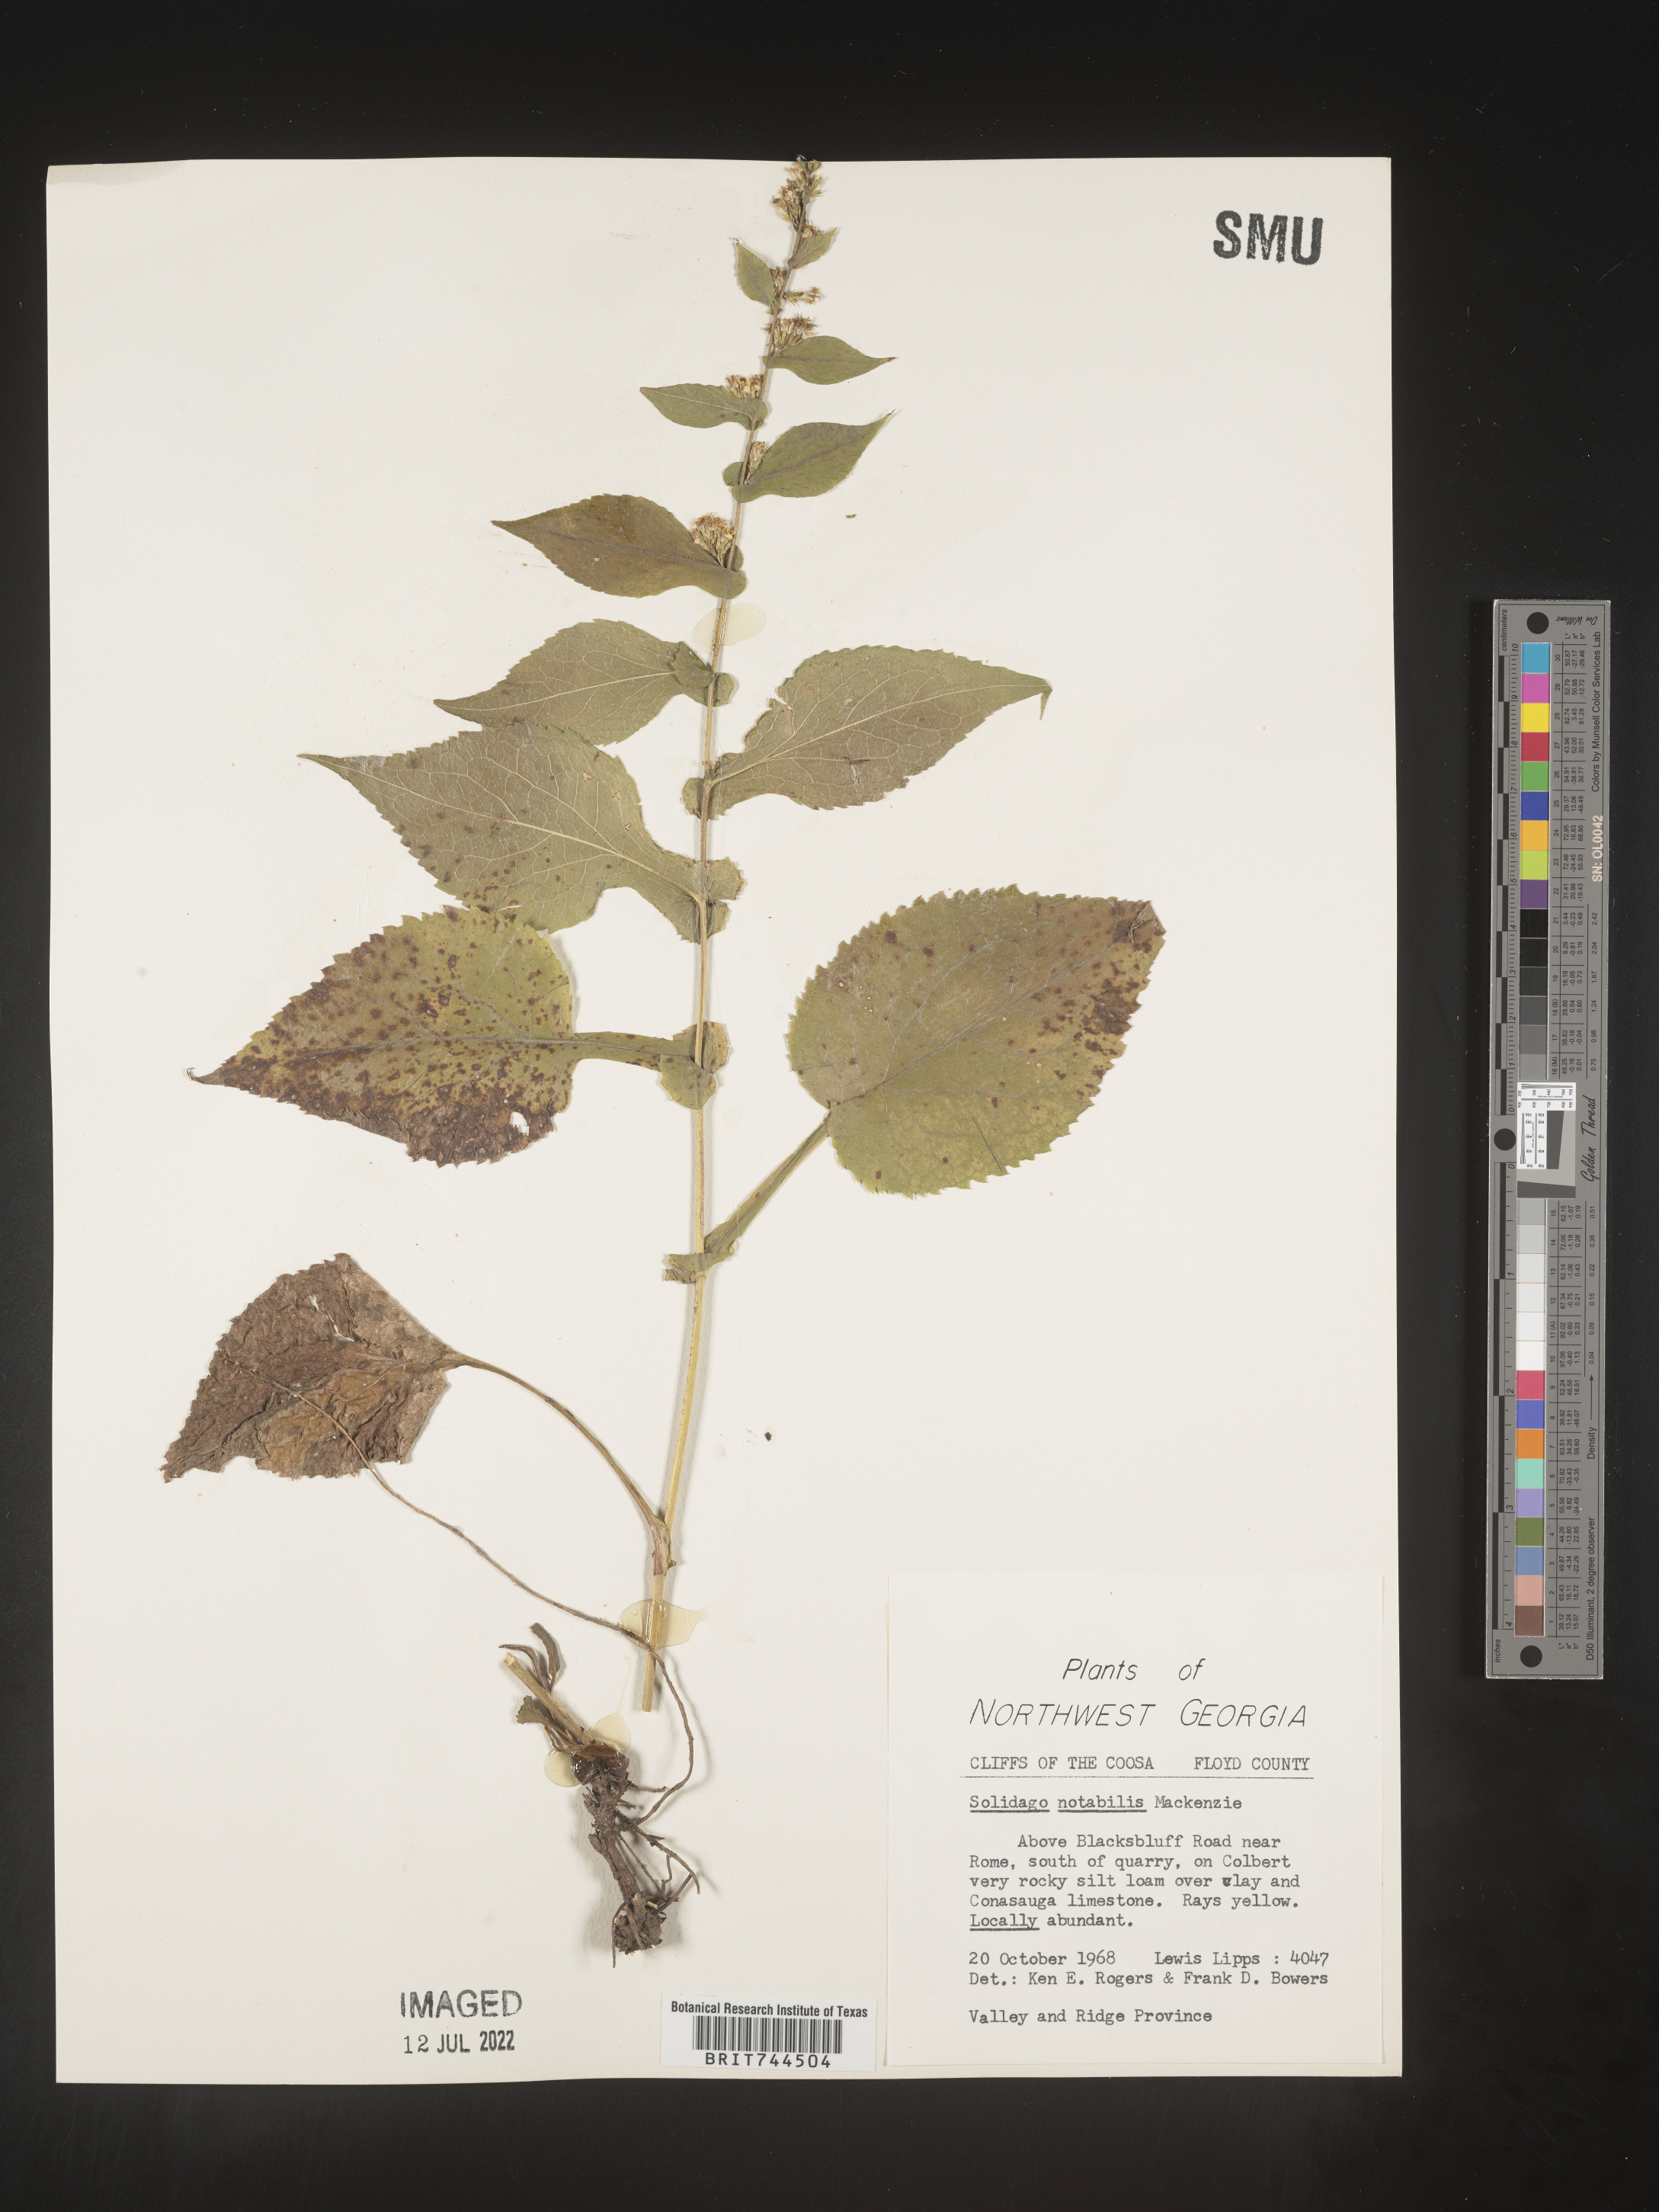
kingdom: Plantae
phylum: Tracheophyta
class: Magnoliopsida
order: Asterales
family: Asteraceae
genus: Solidago
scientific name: Solidago auriculata
